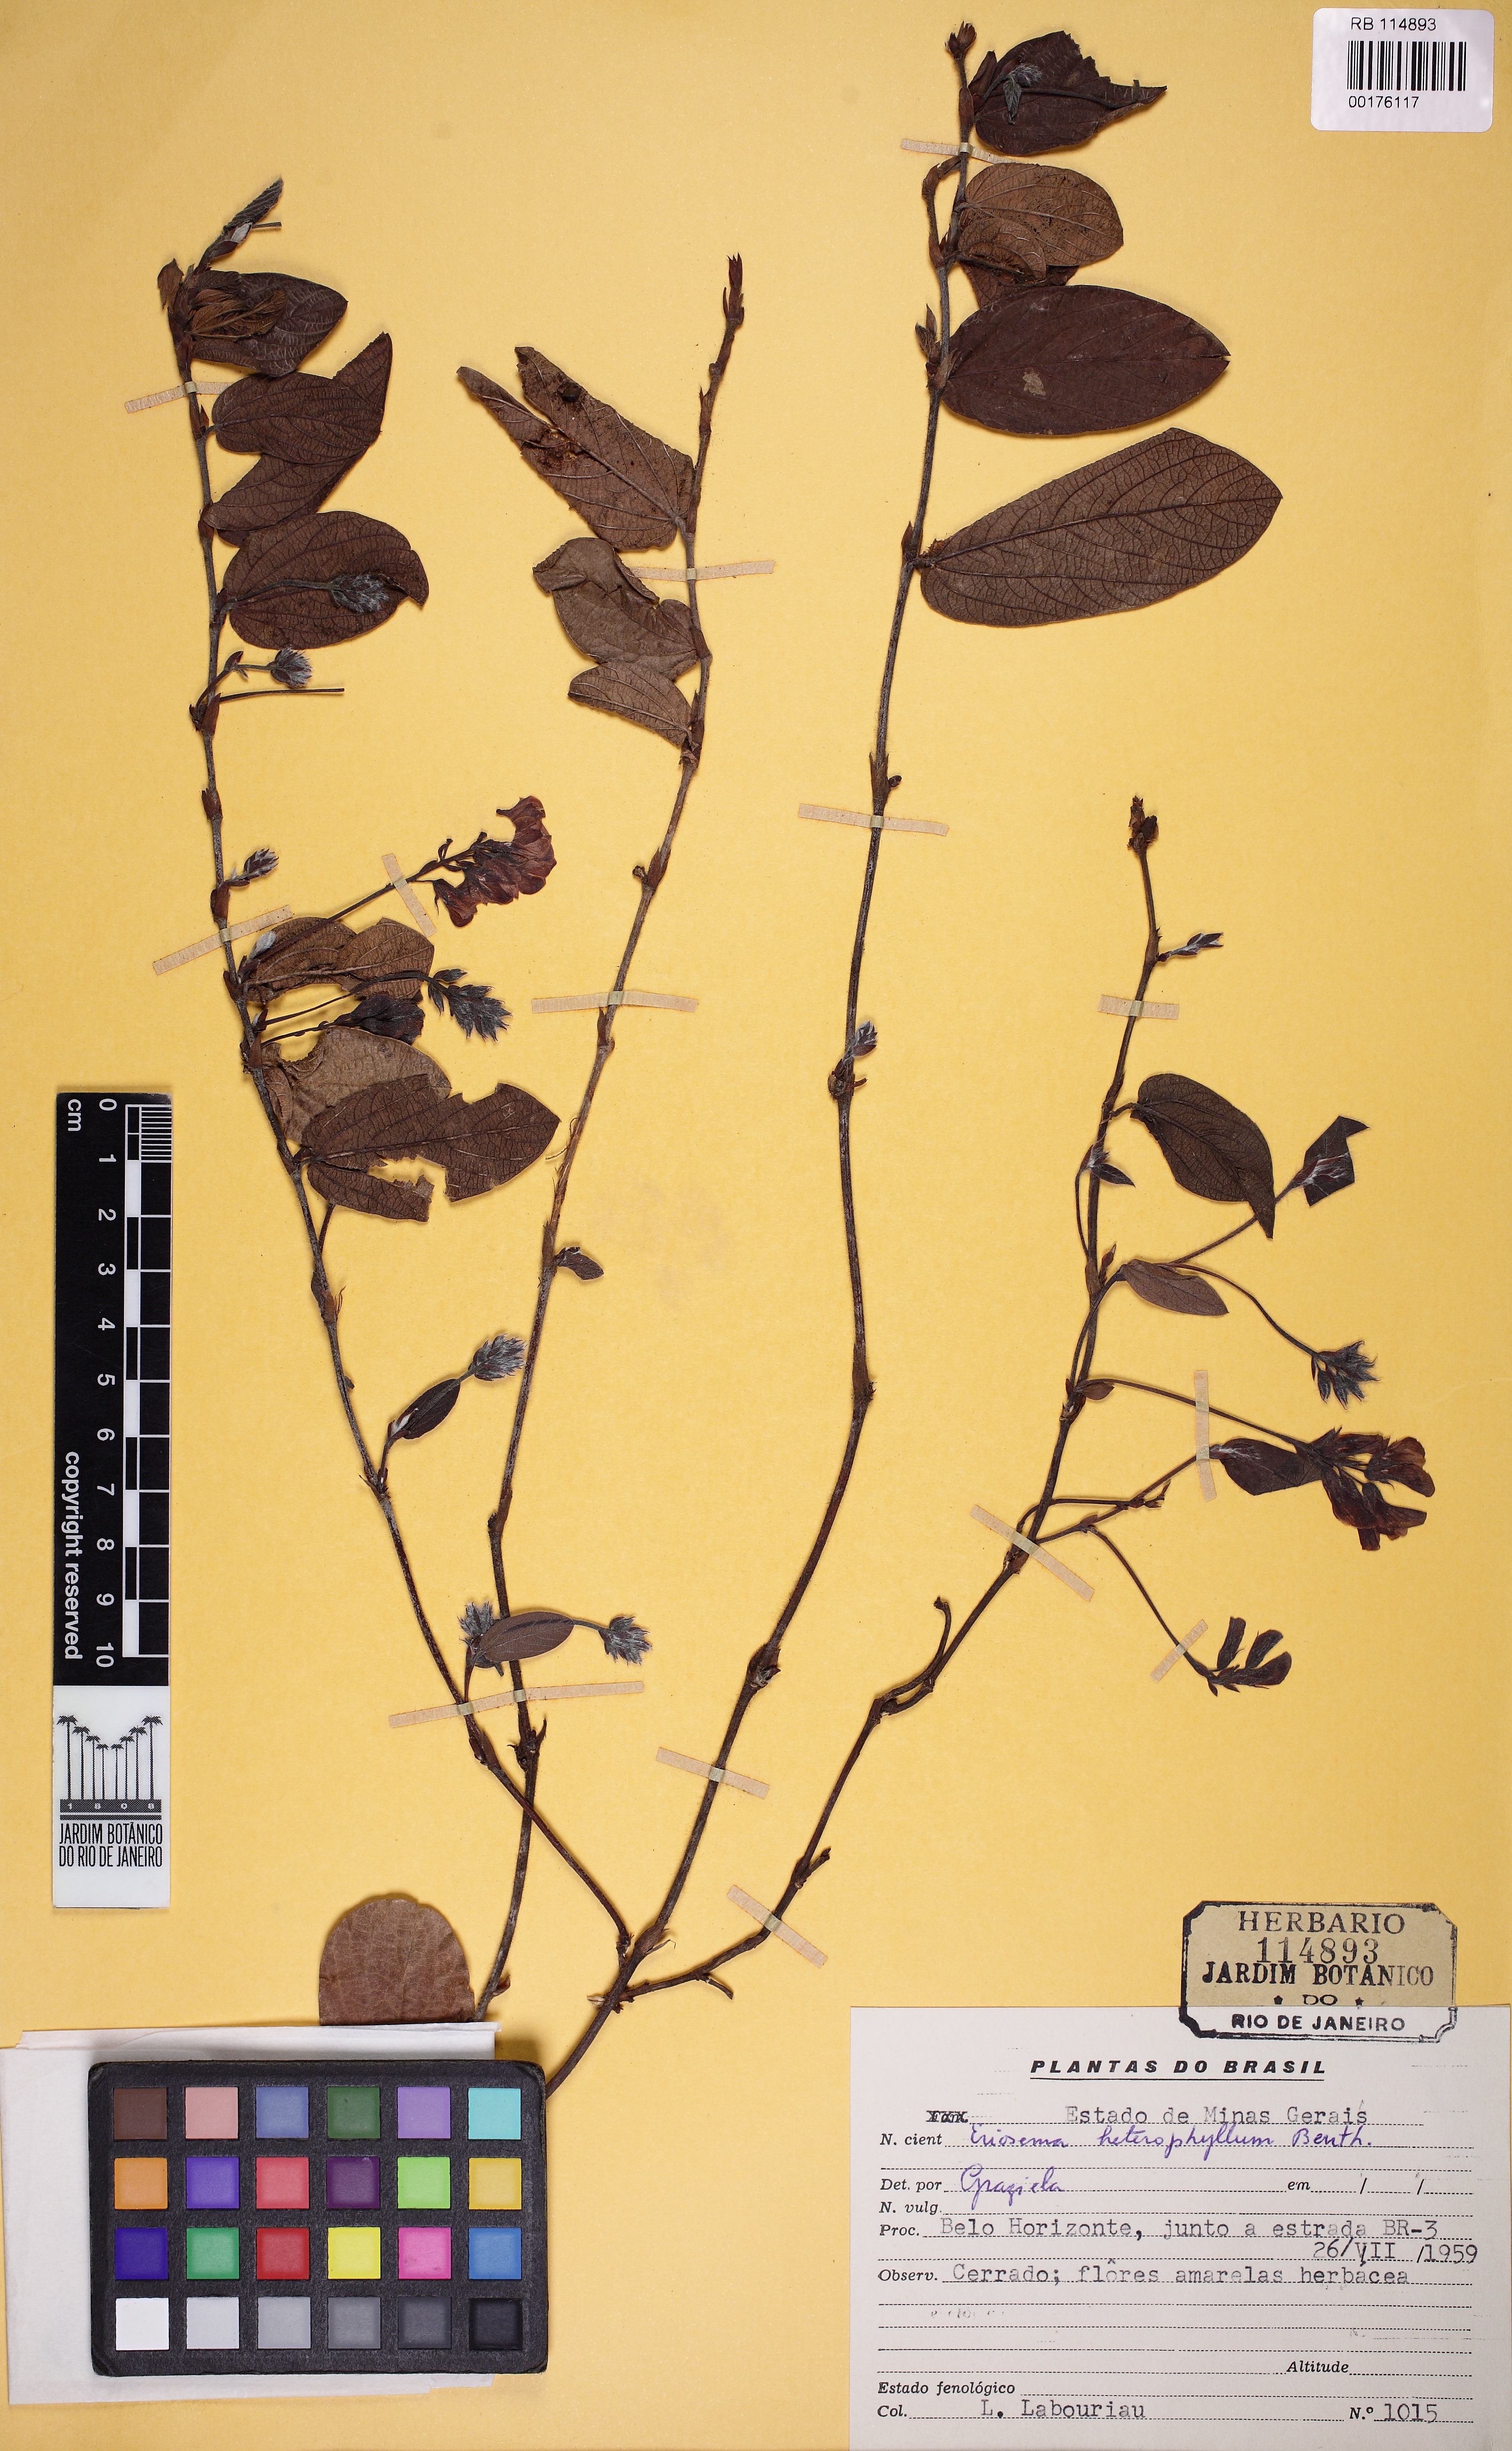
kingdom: Plantae
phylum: Tracheophyta
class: Magnoliopsida
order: Fabales
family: Fabaceae
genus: Eriosema
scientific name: Eriosema heterophyllum
